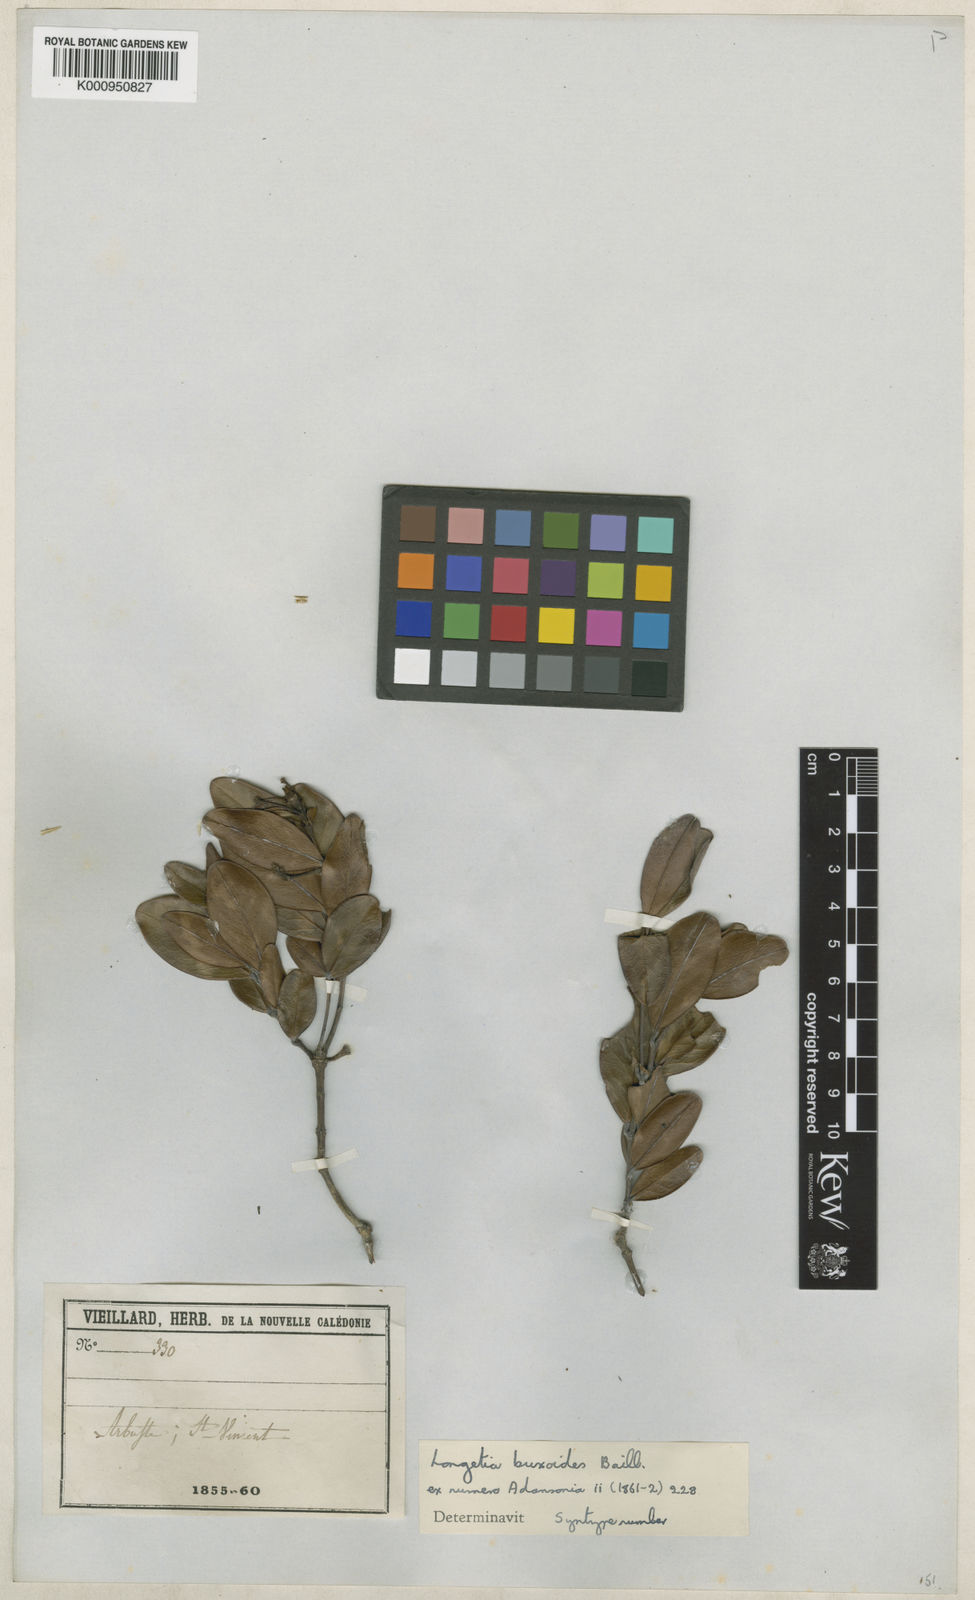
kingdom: Plantae
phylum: Tracheophyta
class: Magnoliopsida
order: Malpighiales
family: Picrodendraceae
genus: Longetia
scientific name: Longetia buxoides
